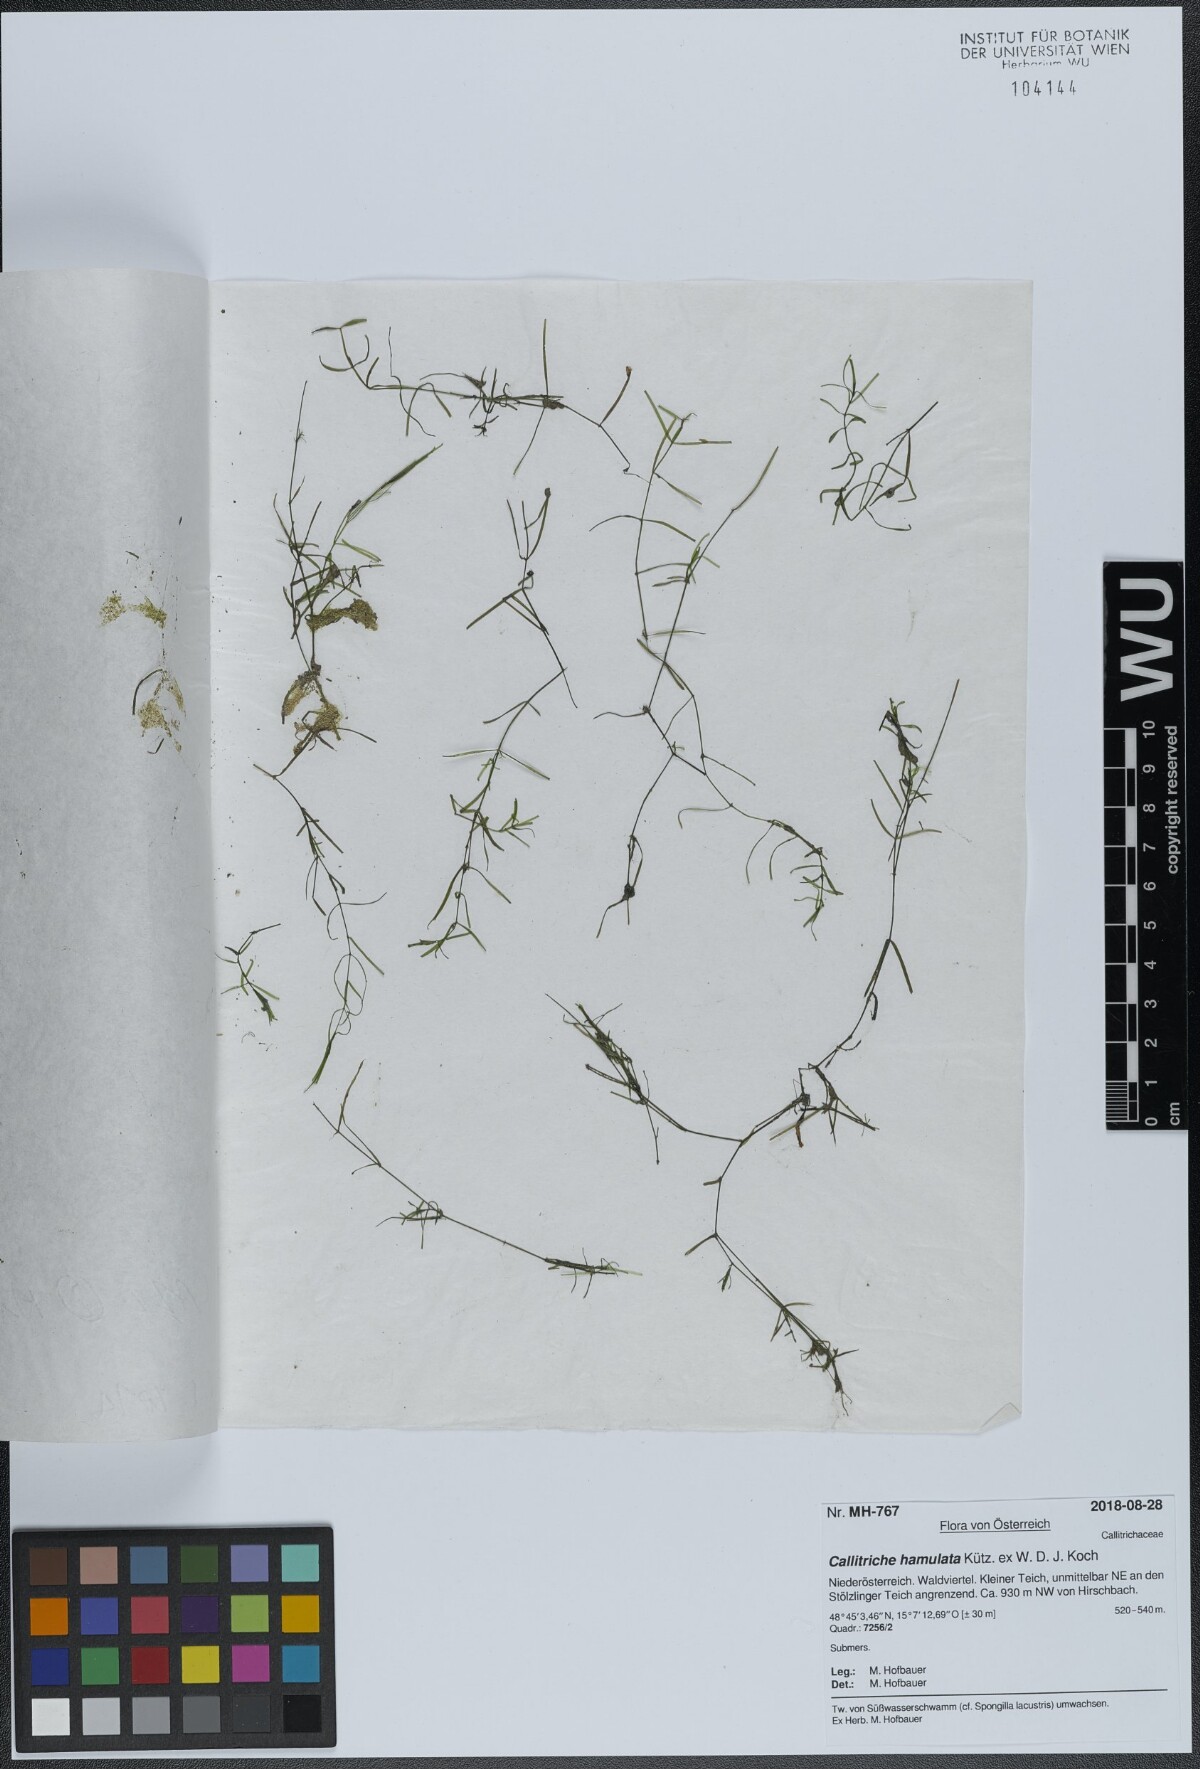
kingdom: Plantae
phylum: Tracheophyta
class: Magnoliopsida
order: Lamiales
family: Plantaginaceae
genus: Callitriche
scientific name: Callitriche hamulata
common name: Intermediate water-starwort
